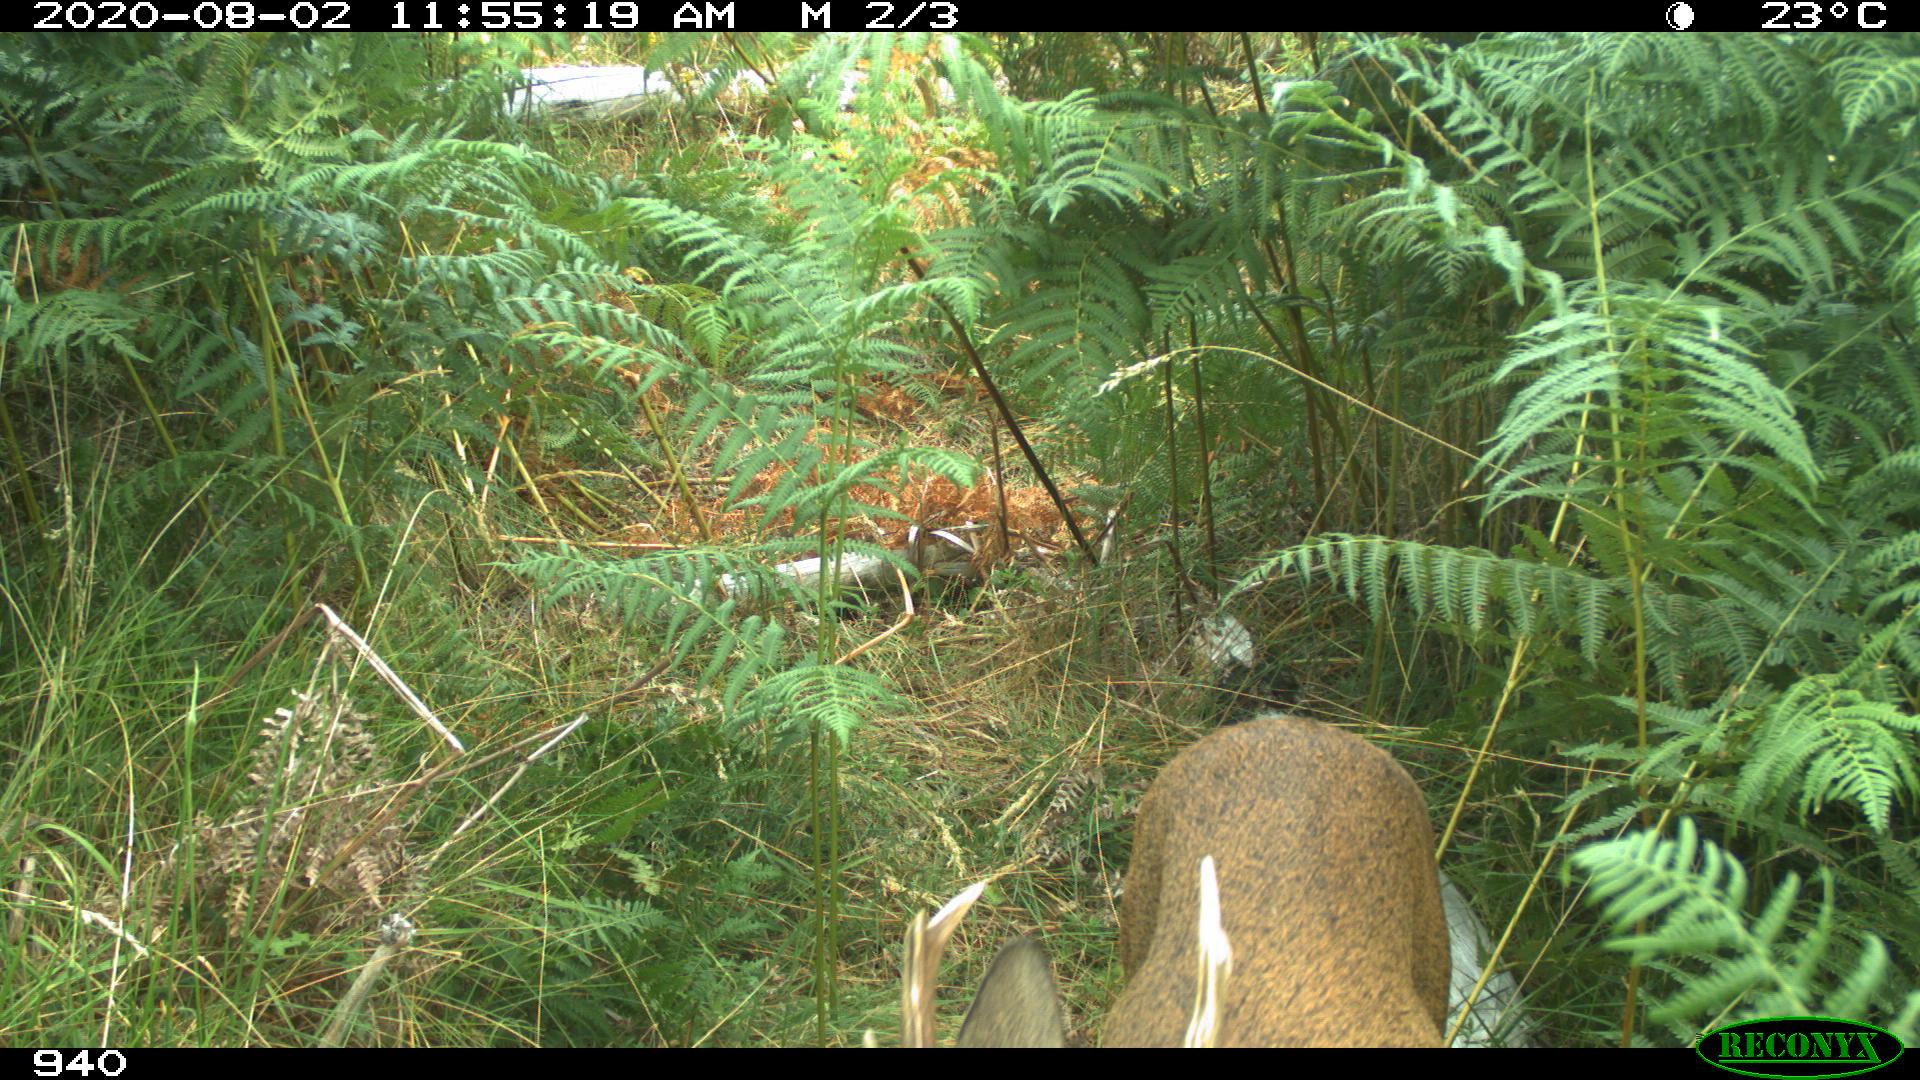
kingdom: Animalia
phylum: Chordata
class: Mammalia
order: Artiodactyla
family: Cervidae
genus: Capreolus
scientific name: Capreolus capreolus
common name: Western roe deer
